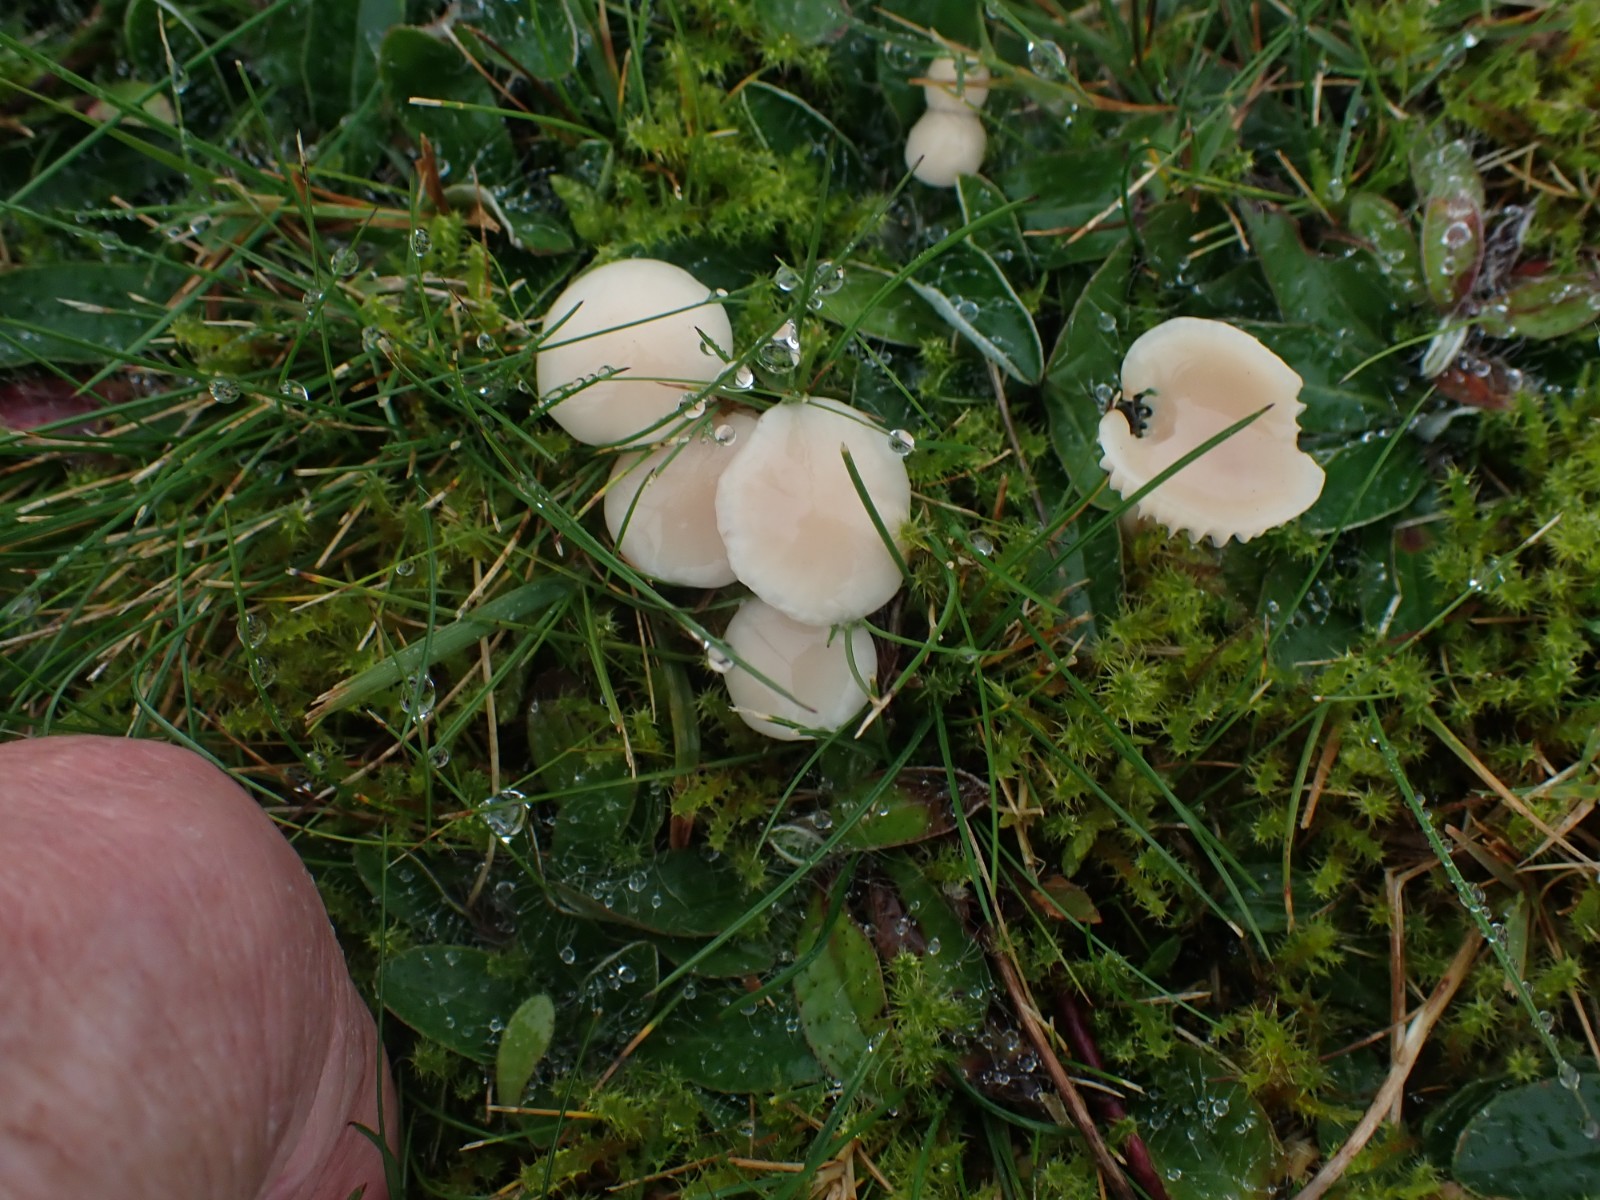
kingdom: Fungi
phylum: Basidiomycota
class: Agaricomycetes
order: Agaricales
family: Hygrophoraceae
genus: Cuphophyllus
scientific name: Cuphophyllus
